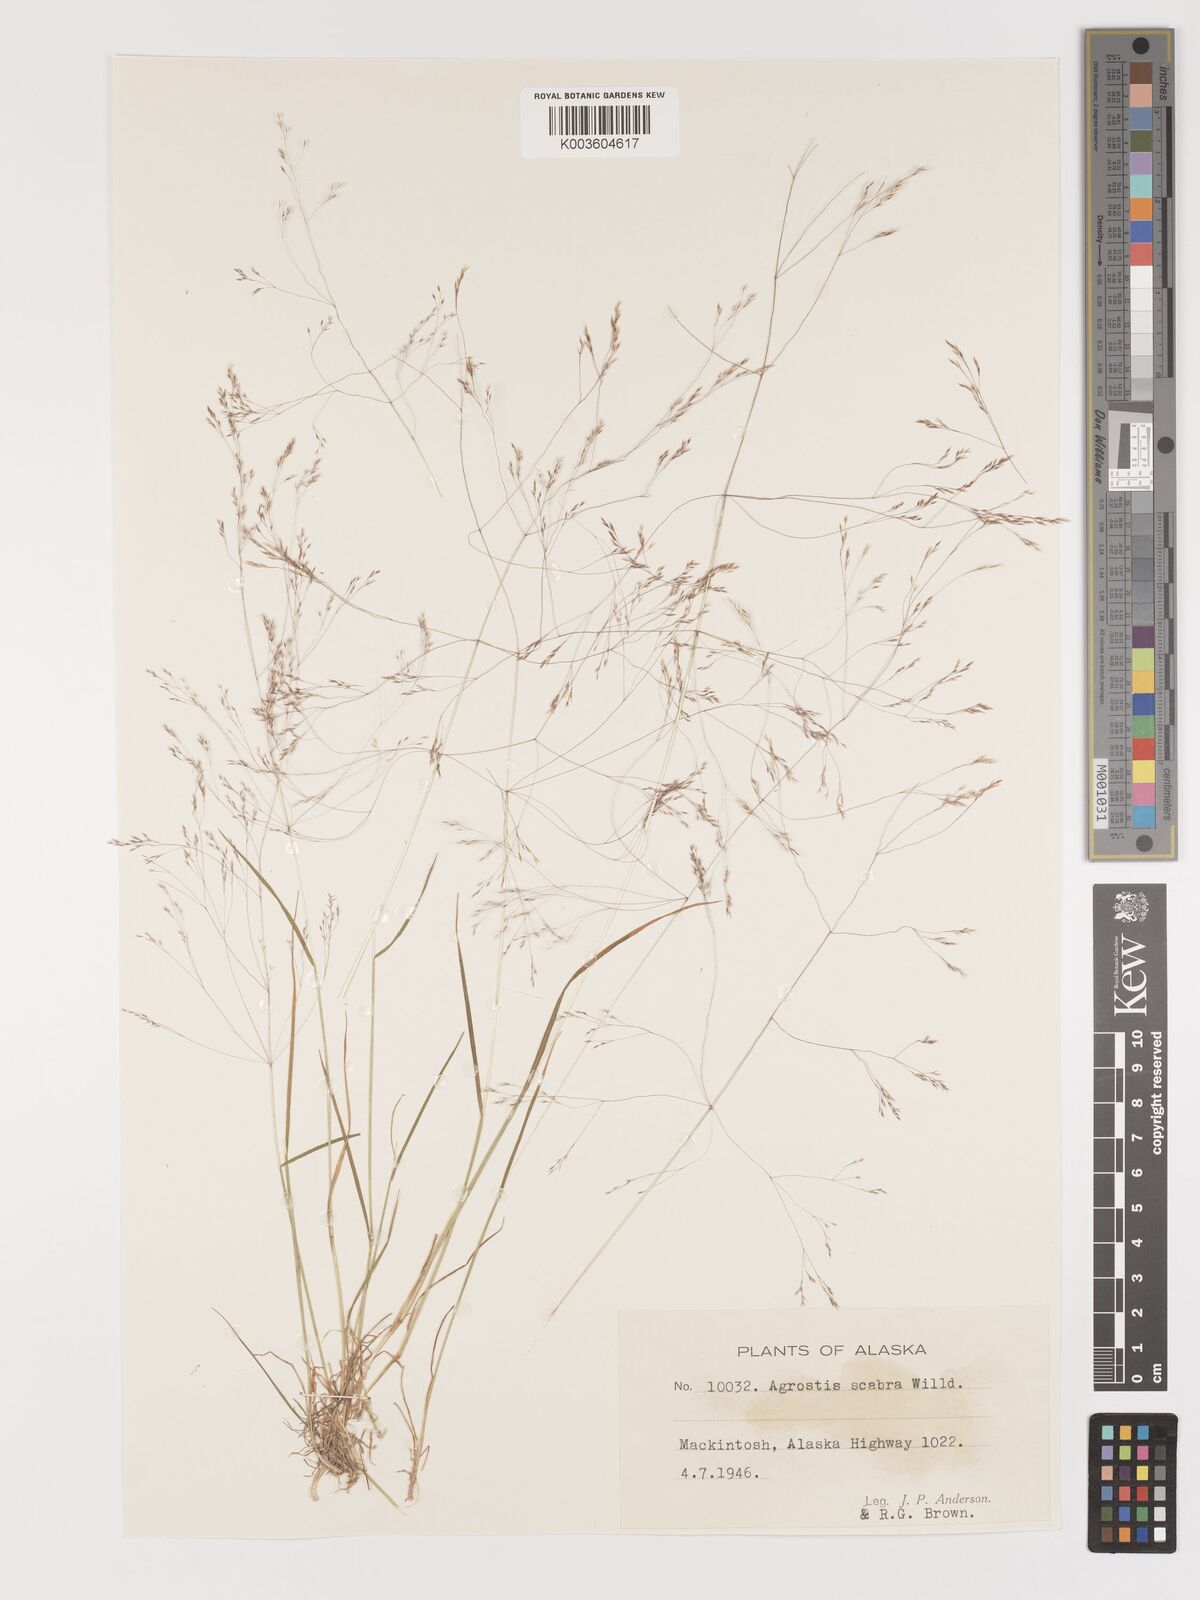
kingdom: Plantae
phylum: Tracheophyta
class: Liliopsida
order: Poales
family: Poaceae
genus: Agrostis
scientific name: Agrostis
